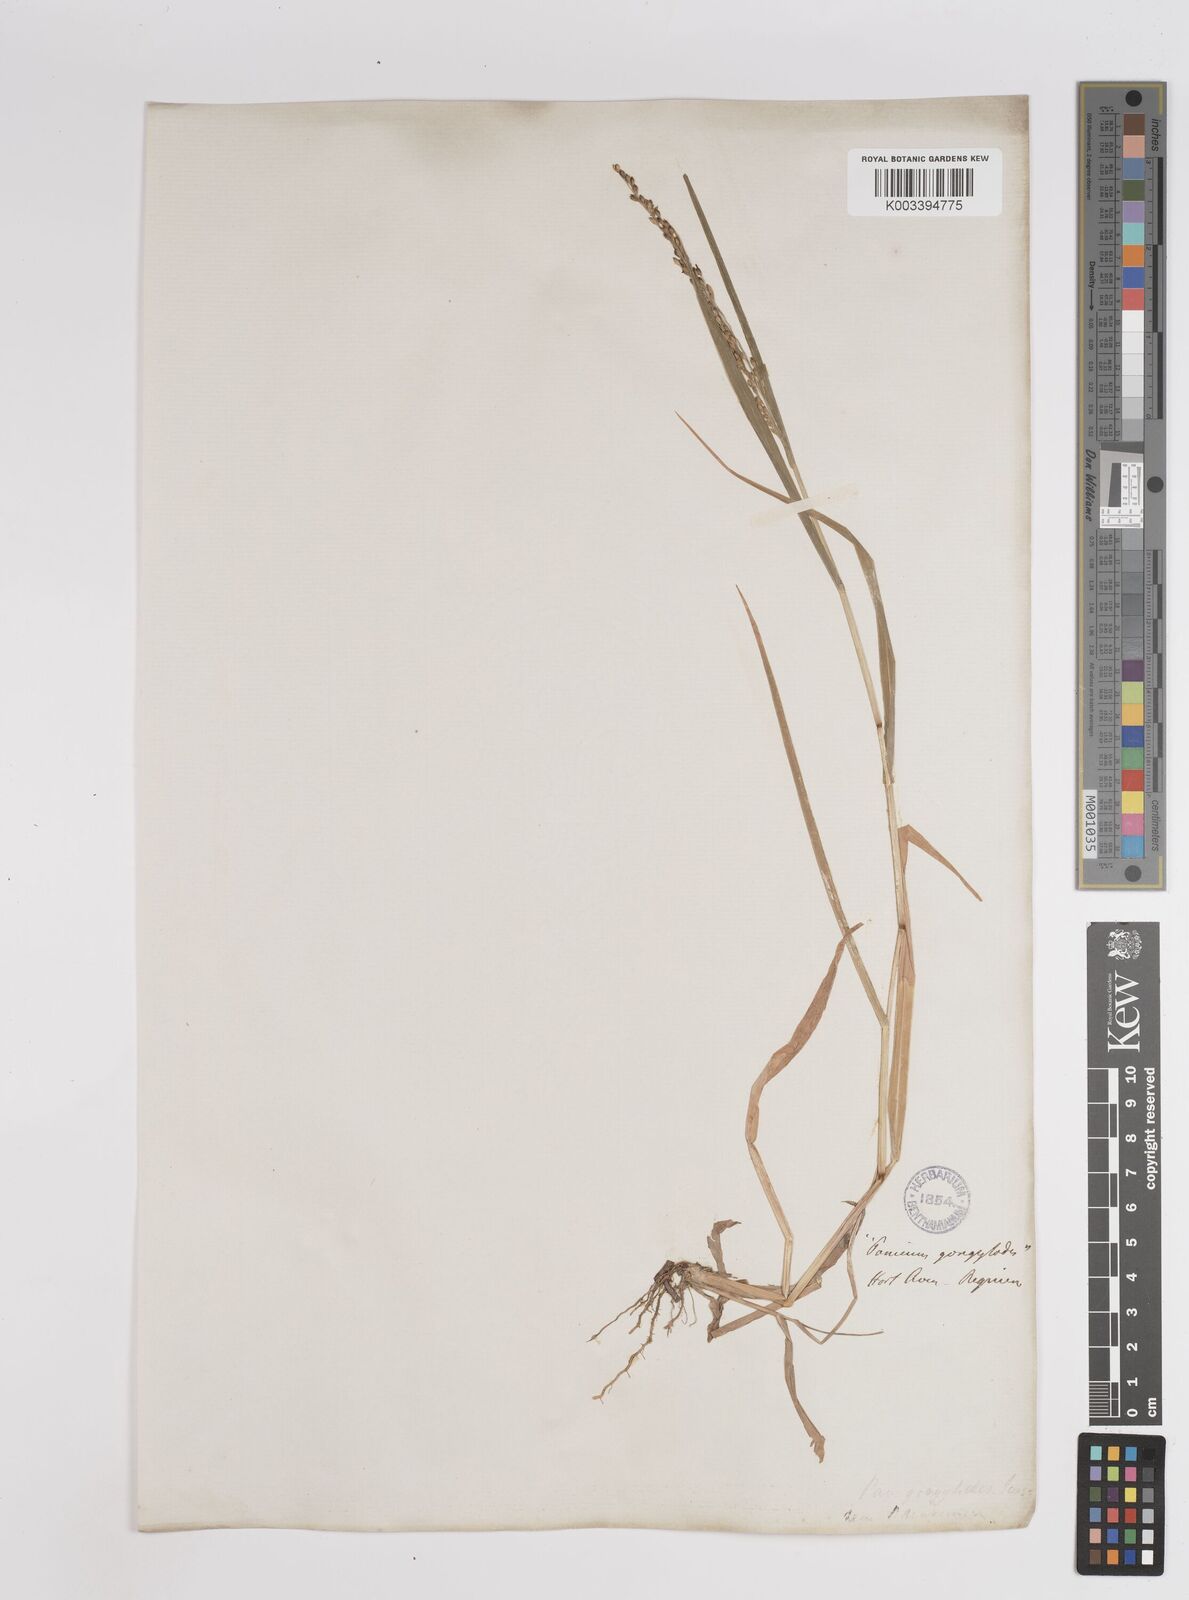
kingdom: Plantae
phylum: Tracheophyta
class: Liliopsida
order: Poales
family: Poaceae
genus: Zuloagaea
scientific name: Zuloagaea bulbosa
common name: Canyon panic grass
